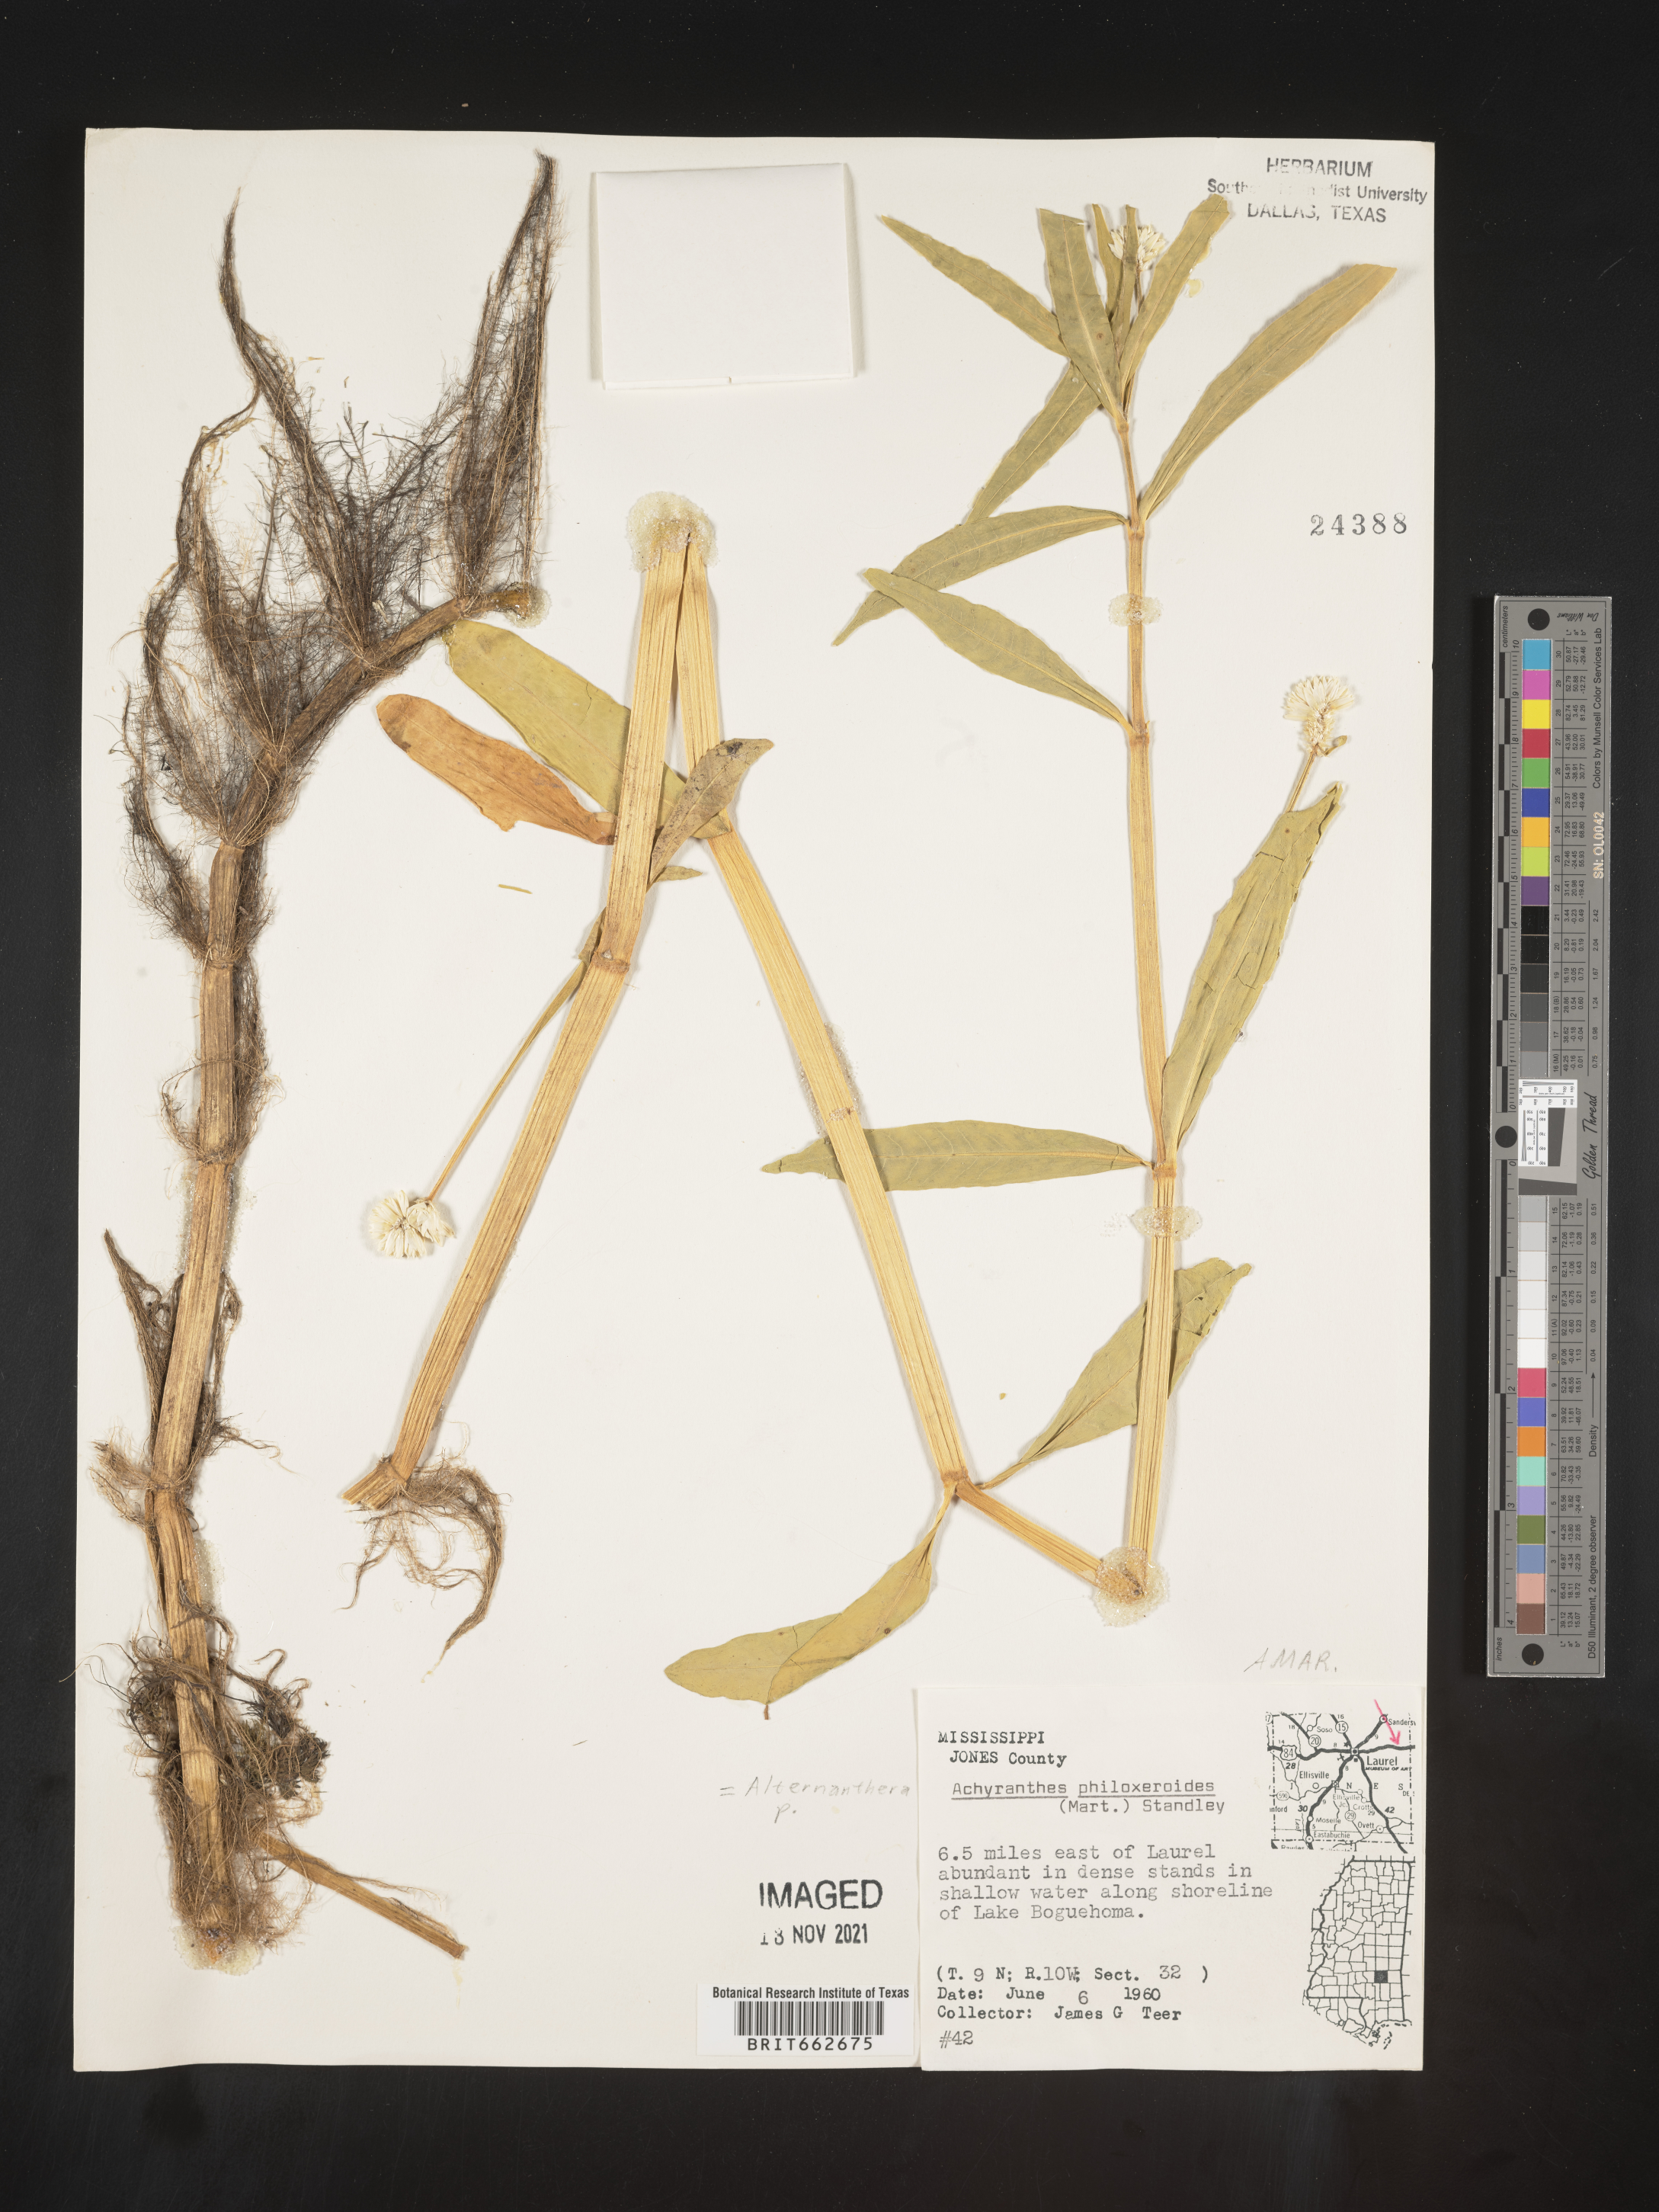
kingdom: Plantae
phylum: Tracheophyta
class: Magnoliopsida
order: Caryophyllales
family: Amaranthaceae
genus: Alternanthera
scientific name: Alternanthera philoxeroides
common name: Alligatorweed
